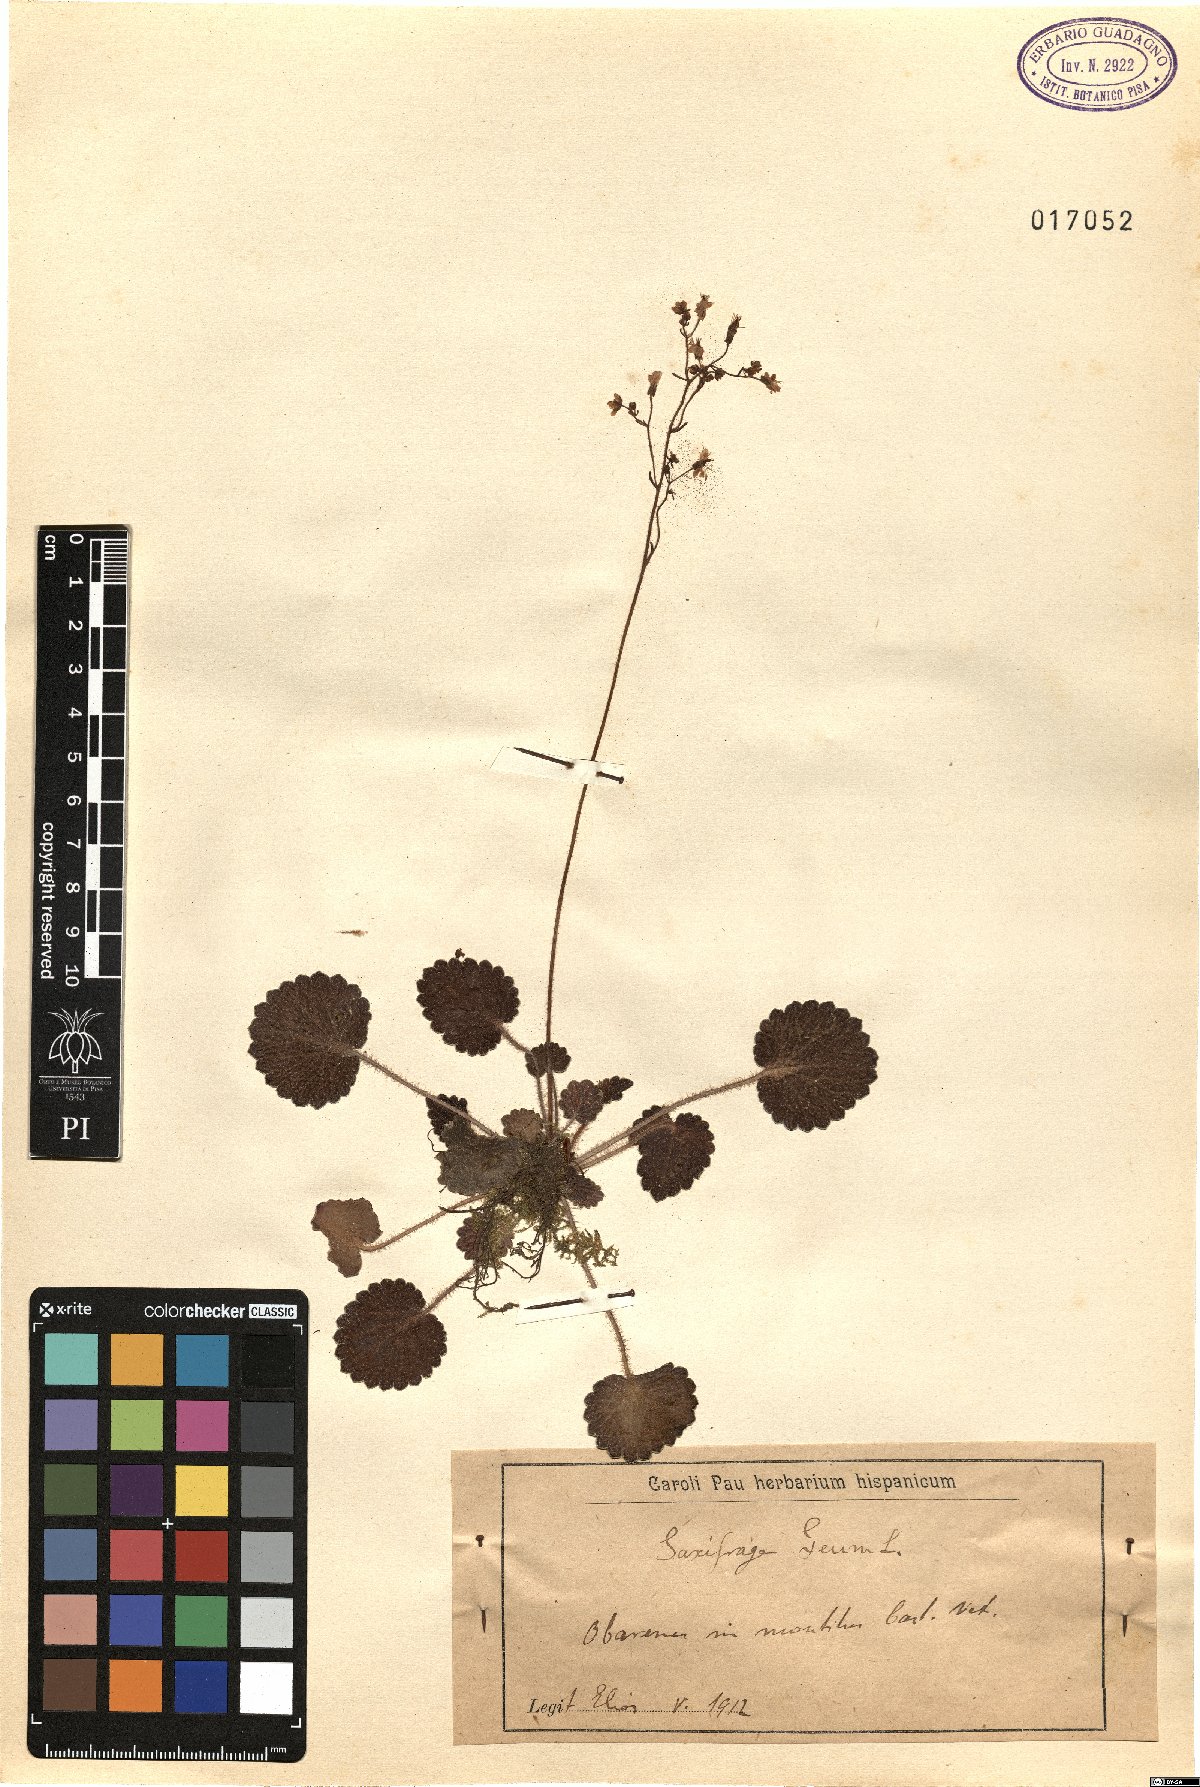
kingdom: Plantae
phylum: Tracheophyta
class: Magnoliopsida
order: Saxifragales
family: Saxifragaceae
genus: Saxifraga
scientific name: Saxifraga geum
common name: Geum saxifrage
